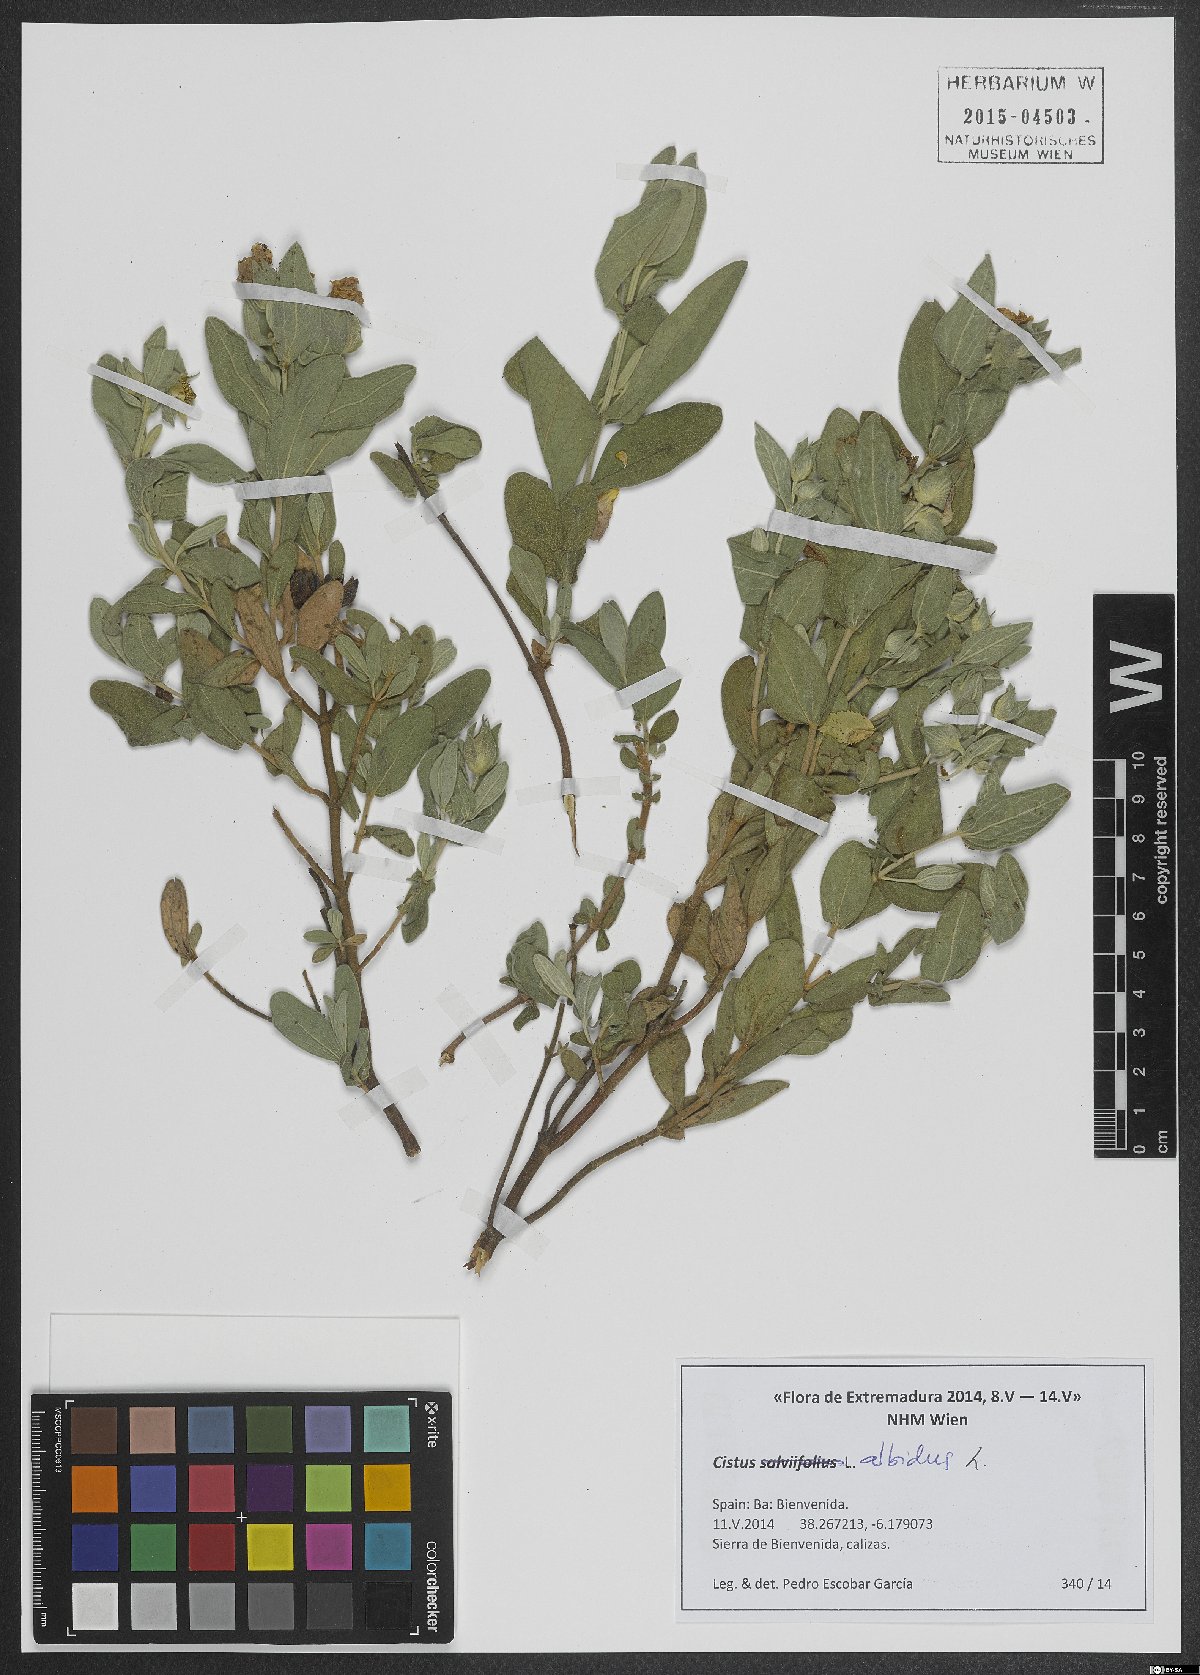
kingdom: Plantae
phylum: Tracheophyta
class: Magnoliopsida
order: Malvales
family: Cistaceae
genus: Cistus
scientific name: Cistus albidus
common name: White-leaf rock-rose
